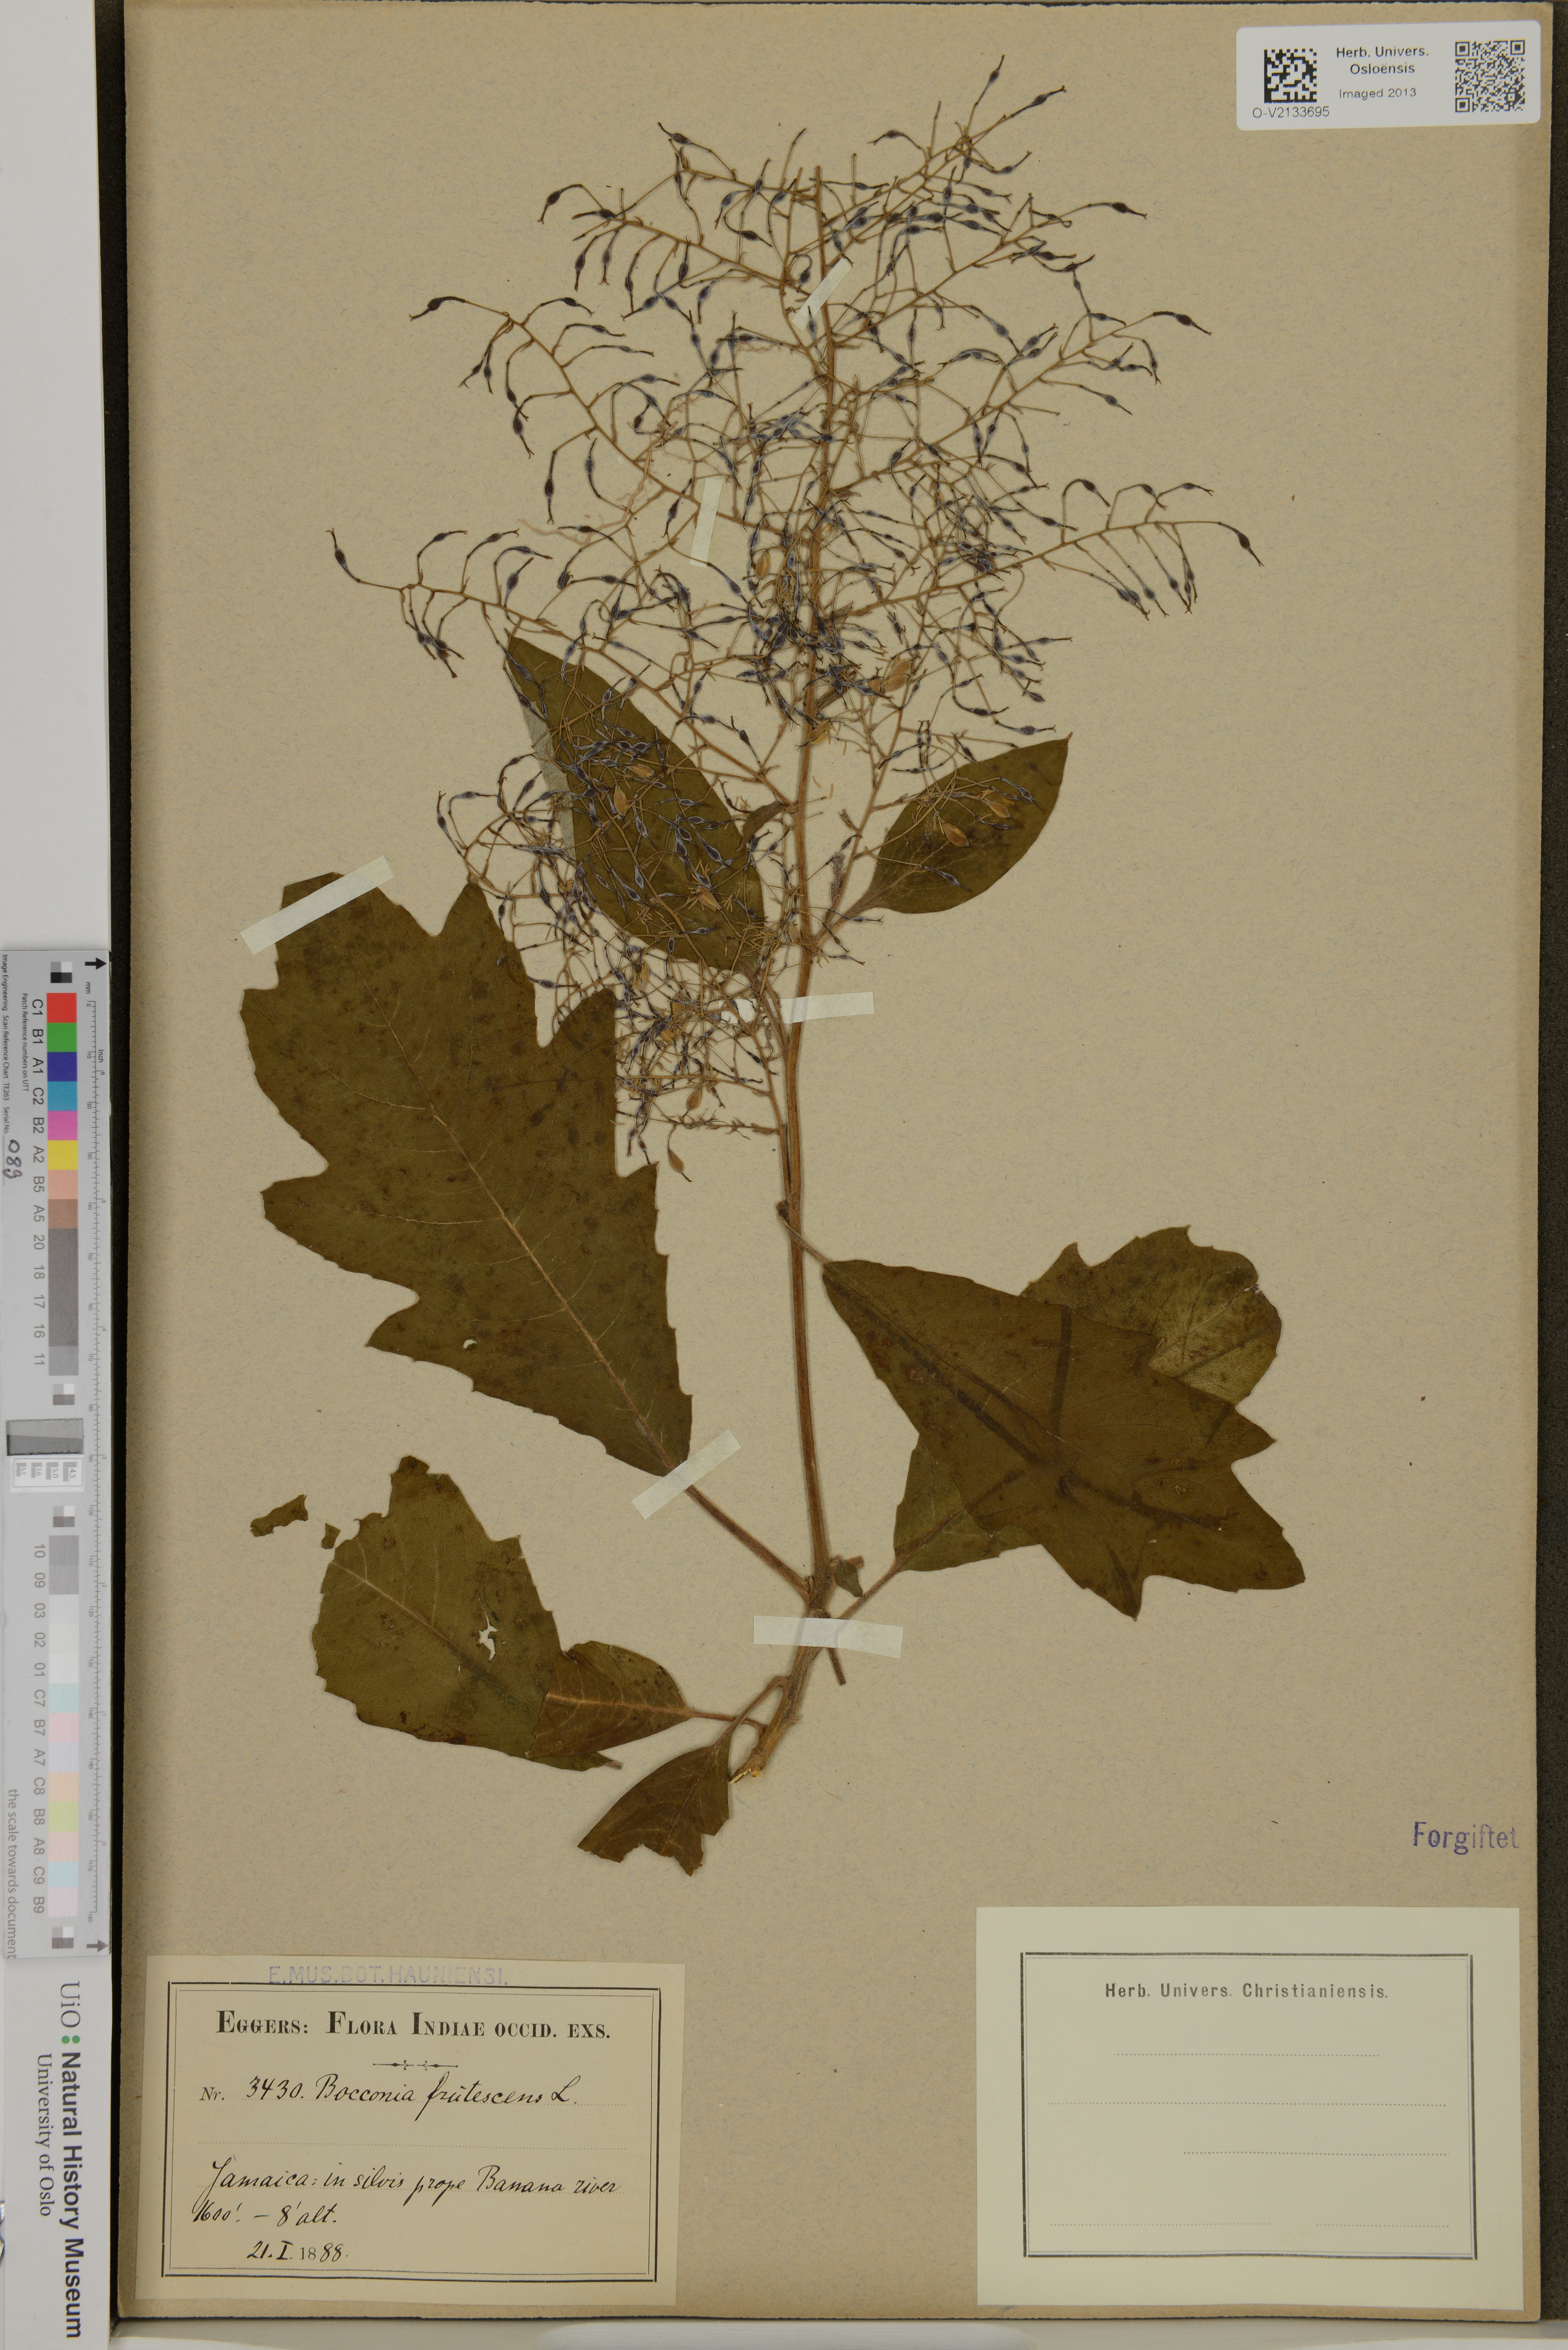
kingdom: Plantae
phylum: Tracheophyta
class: Magnoliopsida
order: Ranunculales
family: Papaveraceae
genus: Bocconia
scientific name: Bocconia frutescens
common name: Tree poppy
